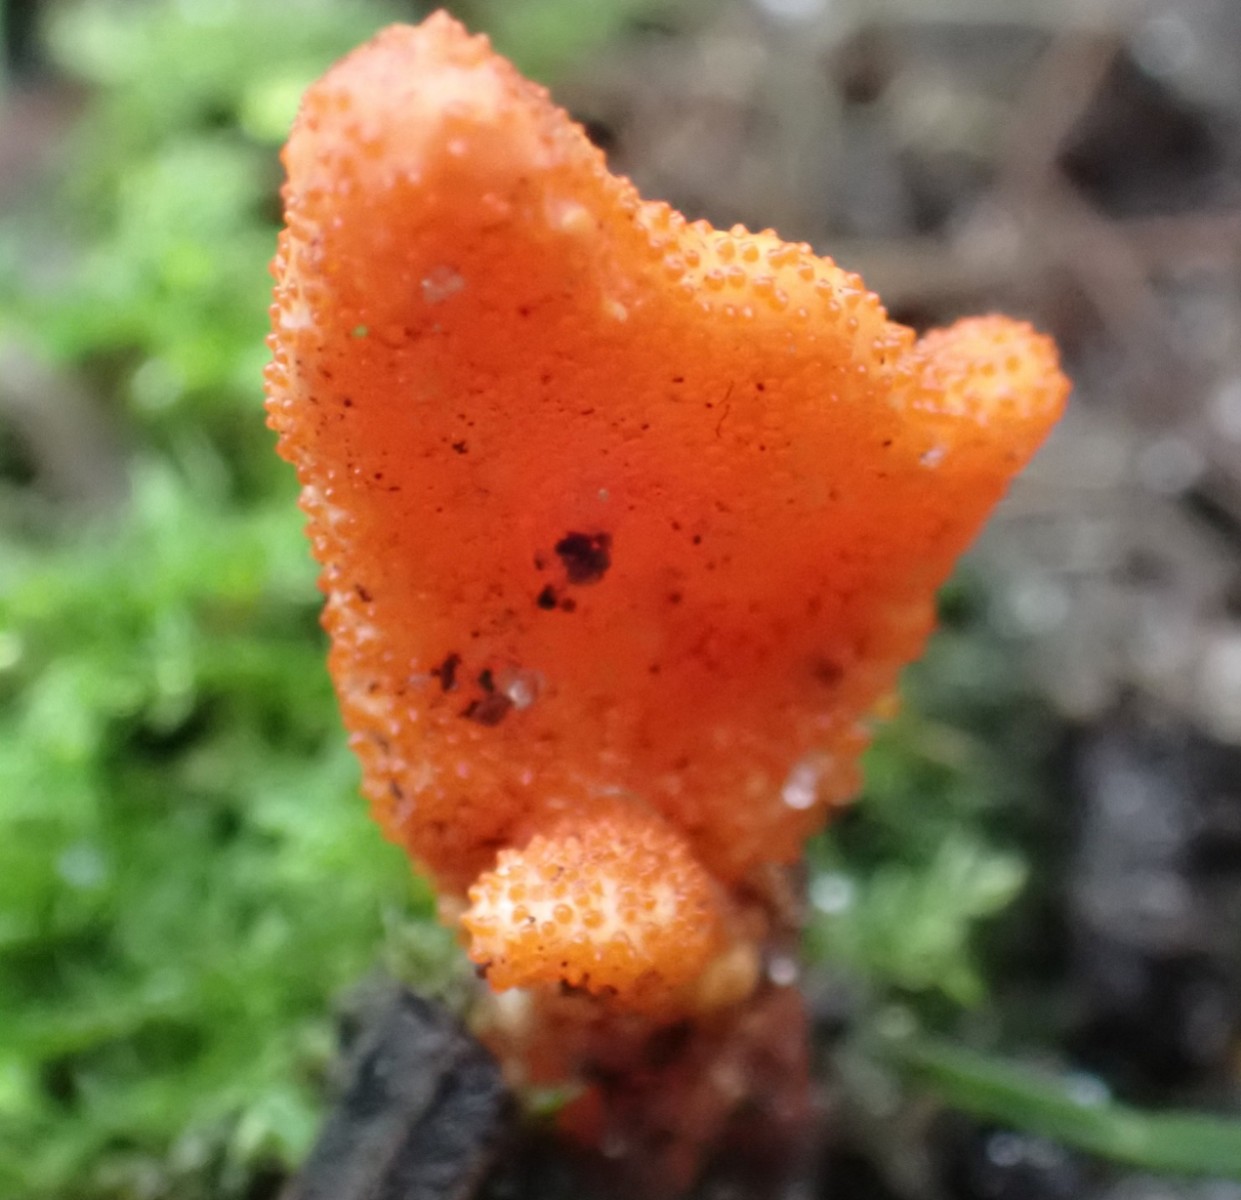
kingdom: Fungi
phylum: Ascomycota
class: Sordariomycetes
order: Hypocreales
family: Cordycipitaceae
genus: Cordyceps
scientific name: Cordyceps militaris
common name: puppe-snyltekølle
